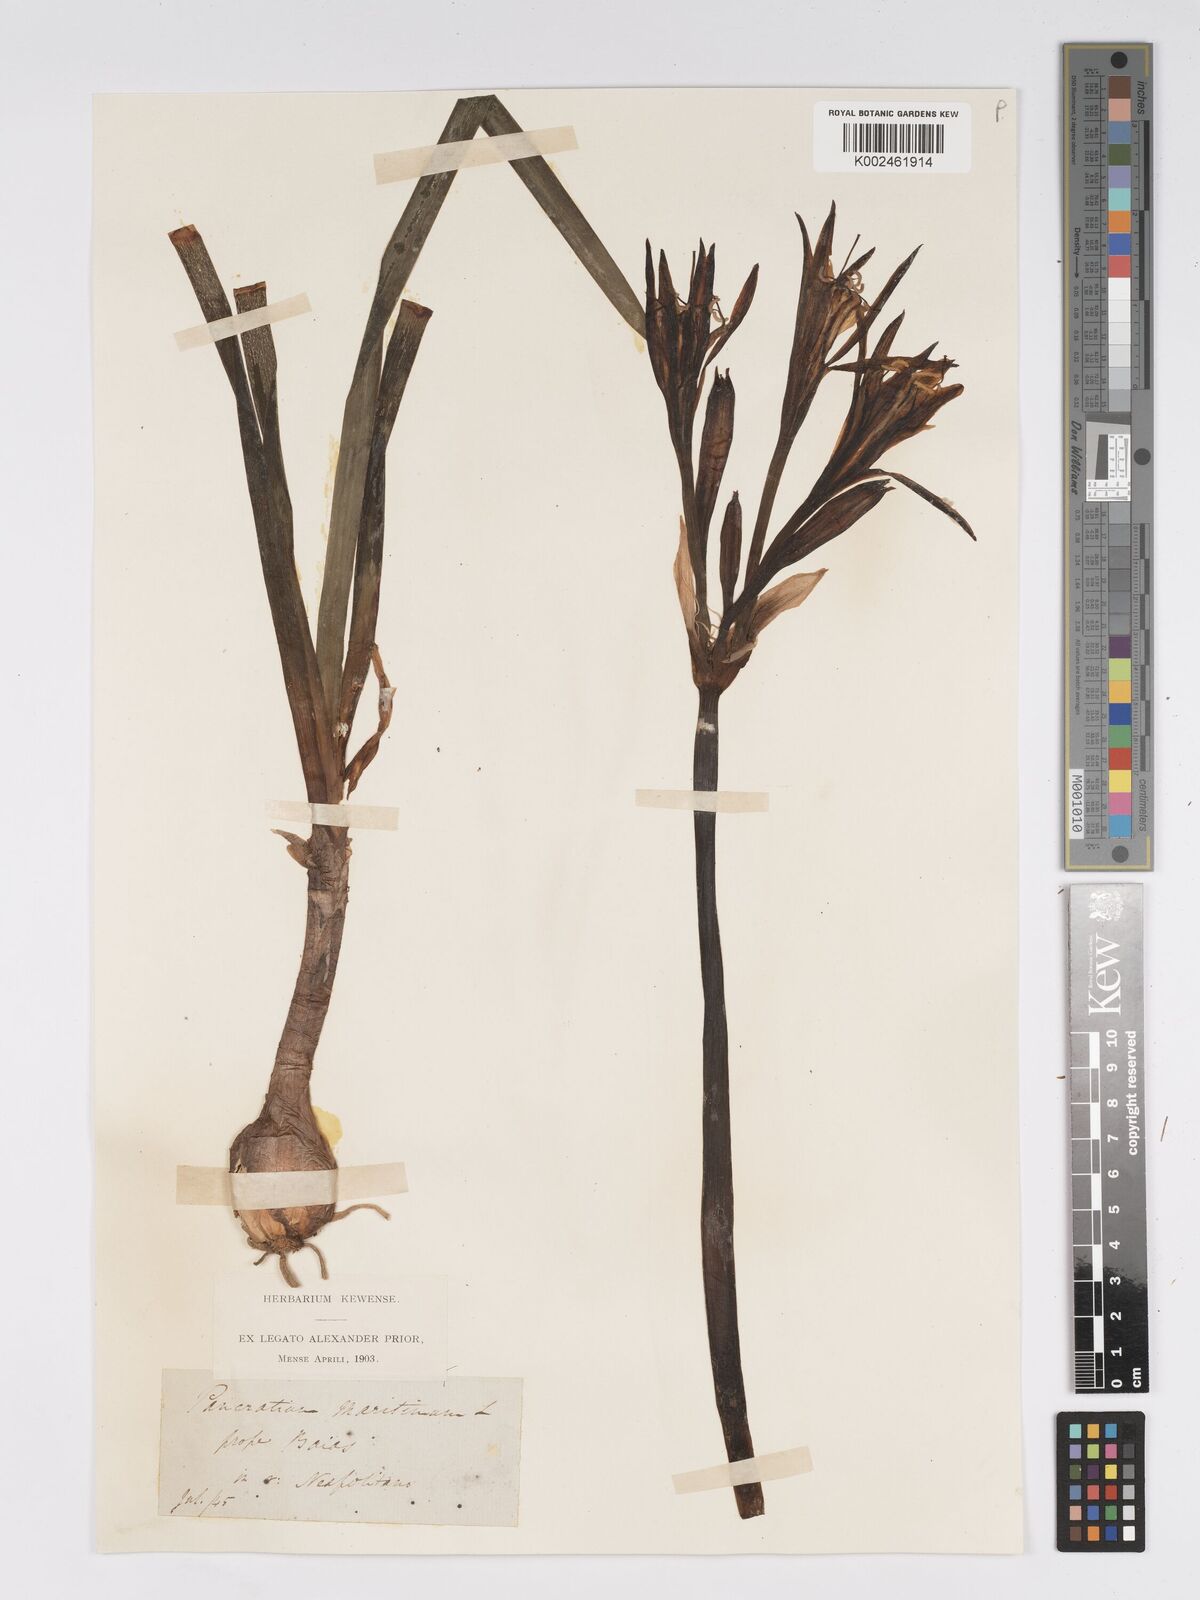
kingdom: Plantae
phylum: Tracheophyta
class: Liliopsida
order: Asparagales
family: Amaryllidaceae
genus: Pancratium
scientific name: Pancratium maritimum
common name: Sea-daffodil
